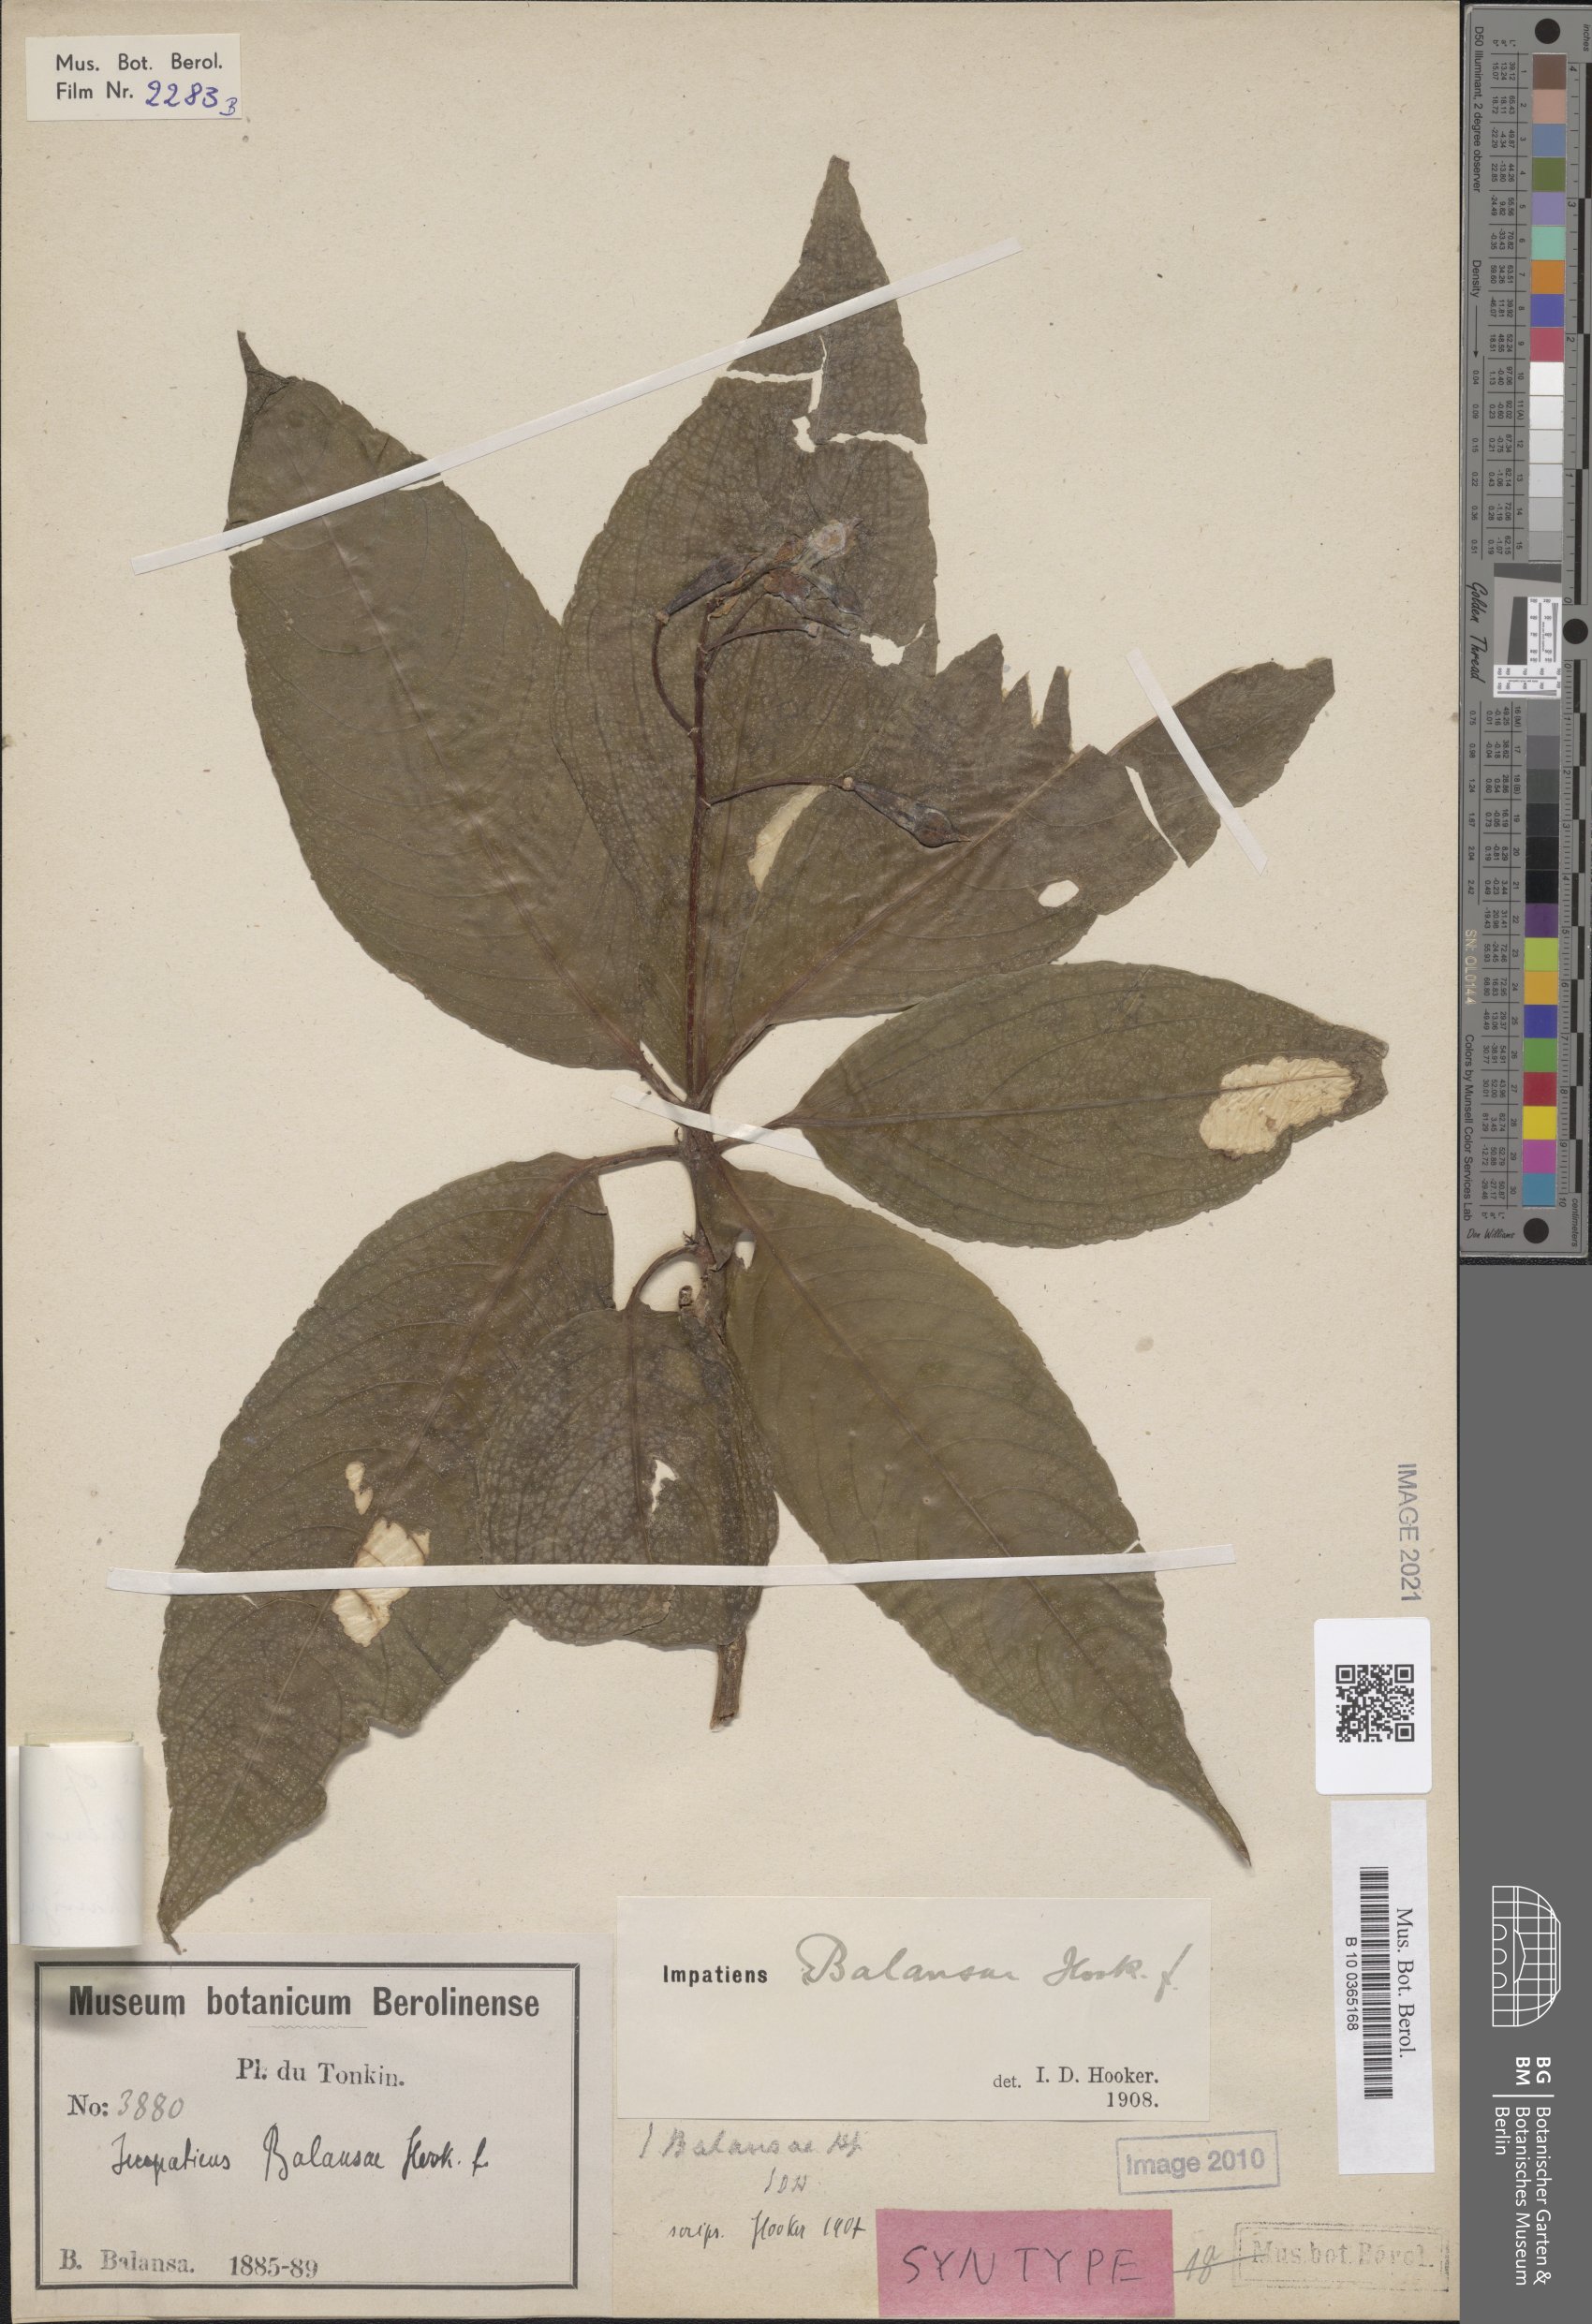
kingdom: Plantae
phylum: Tracheophyta
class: Magnoliopsida
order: Ericales
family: Balsaminaceae
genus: Impatiens
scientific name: Impatiens balansae
